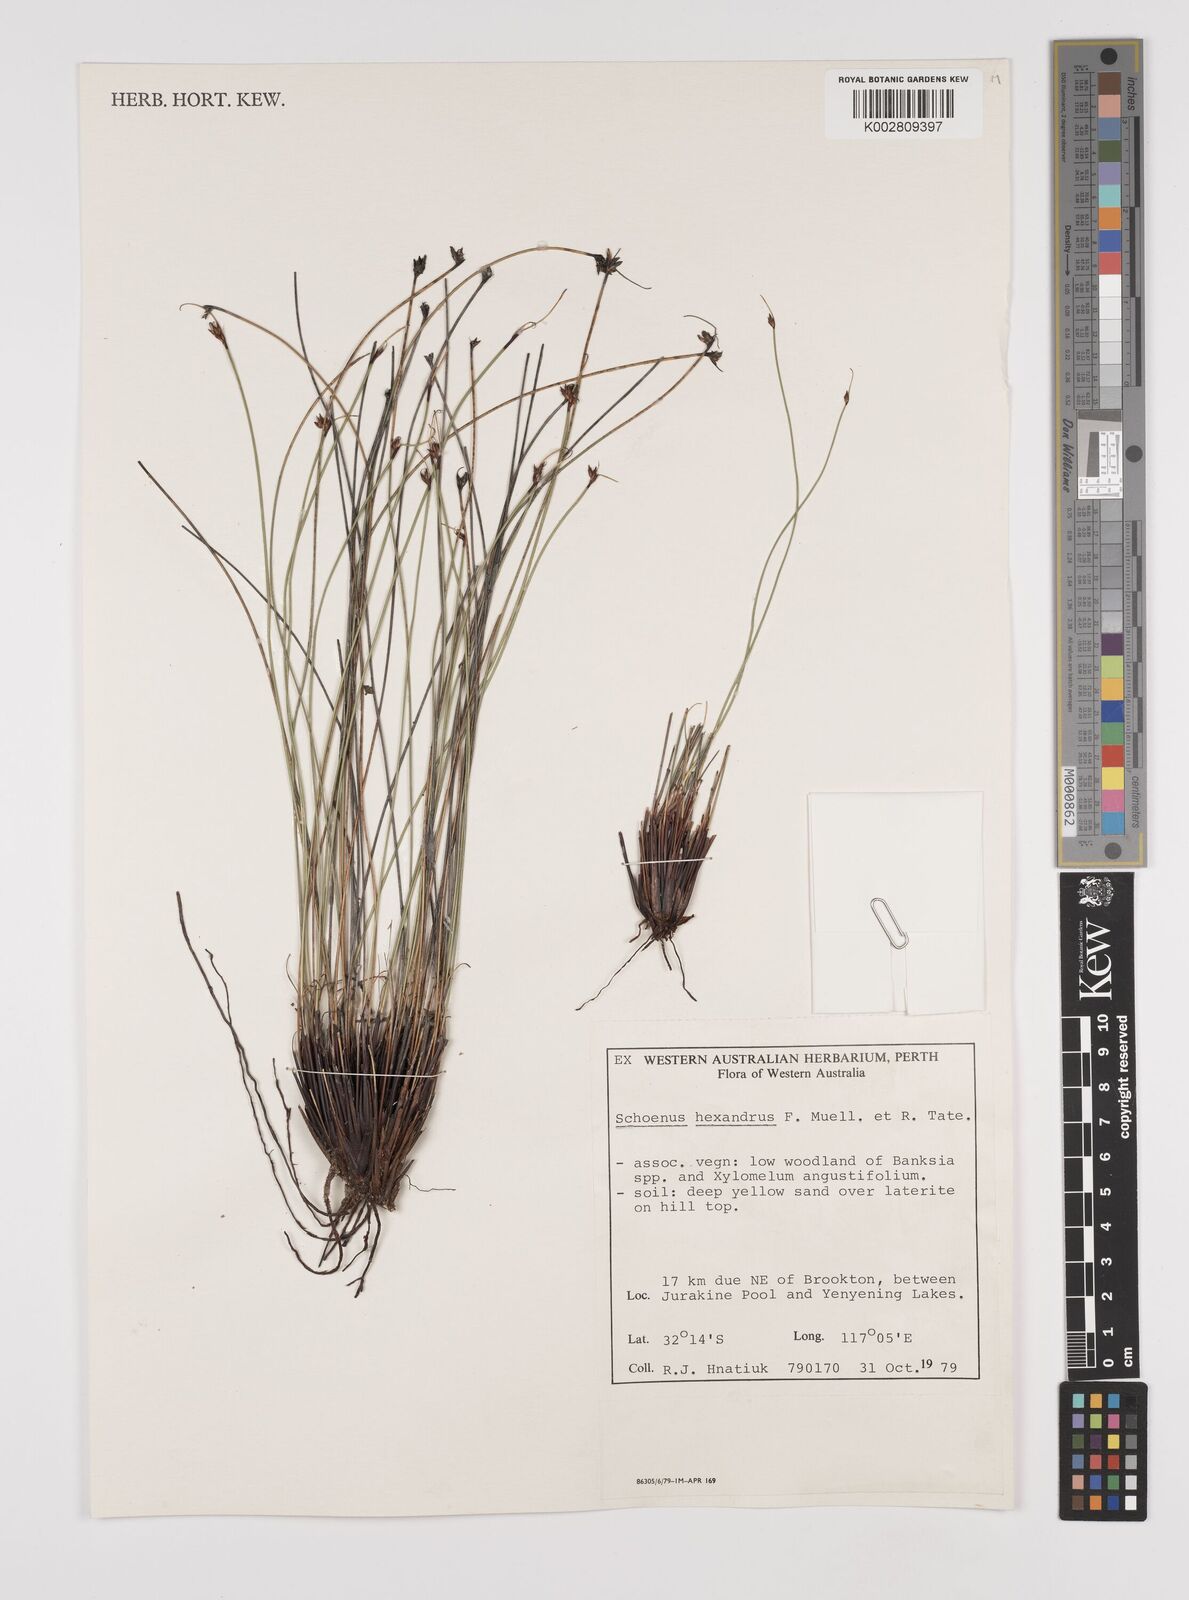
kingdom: Plantae
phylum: Tracheophyta
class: Liliopsida
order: Poales
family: Cyperaceae
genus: Schoenus
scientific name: Schoenus hexander
